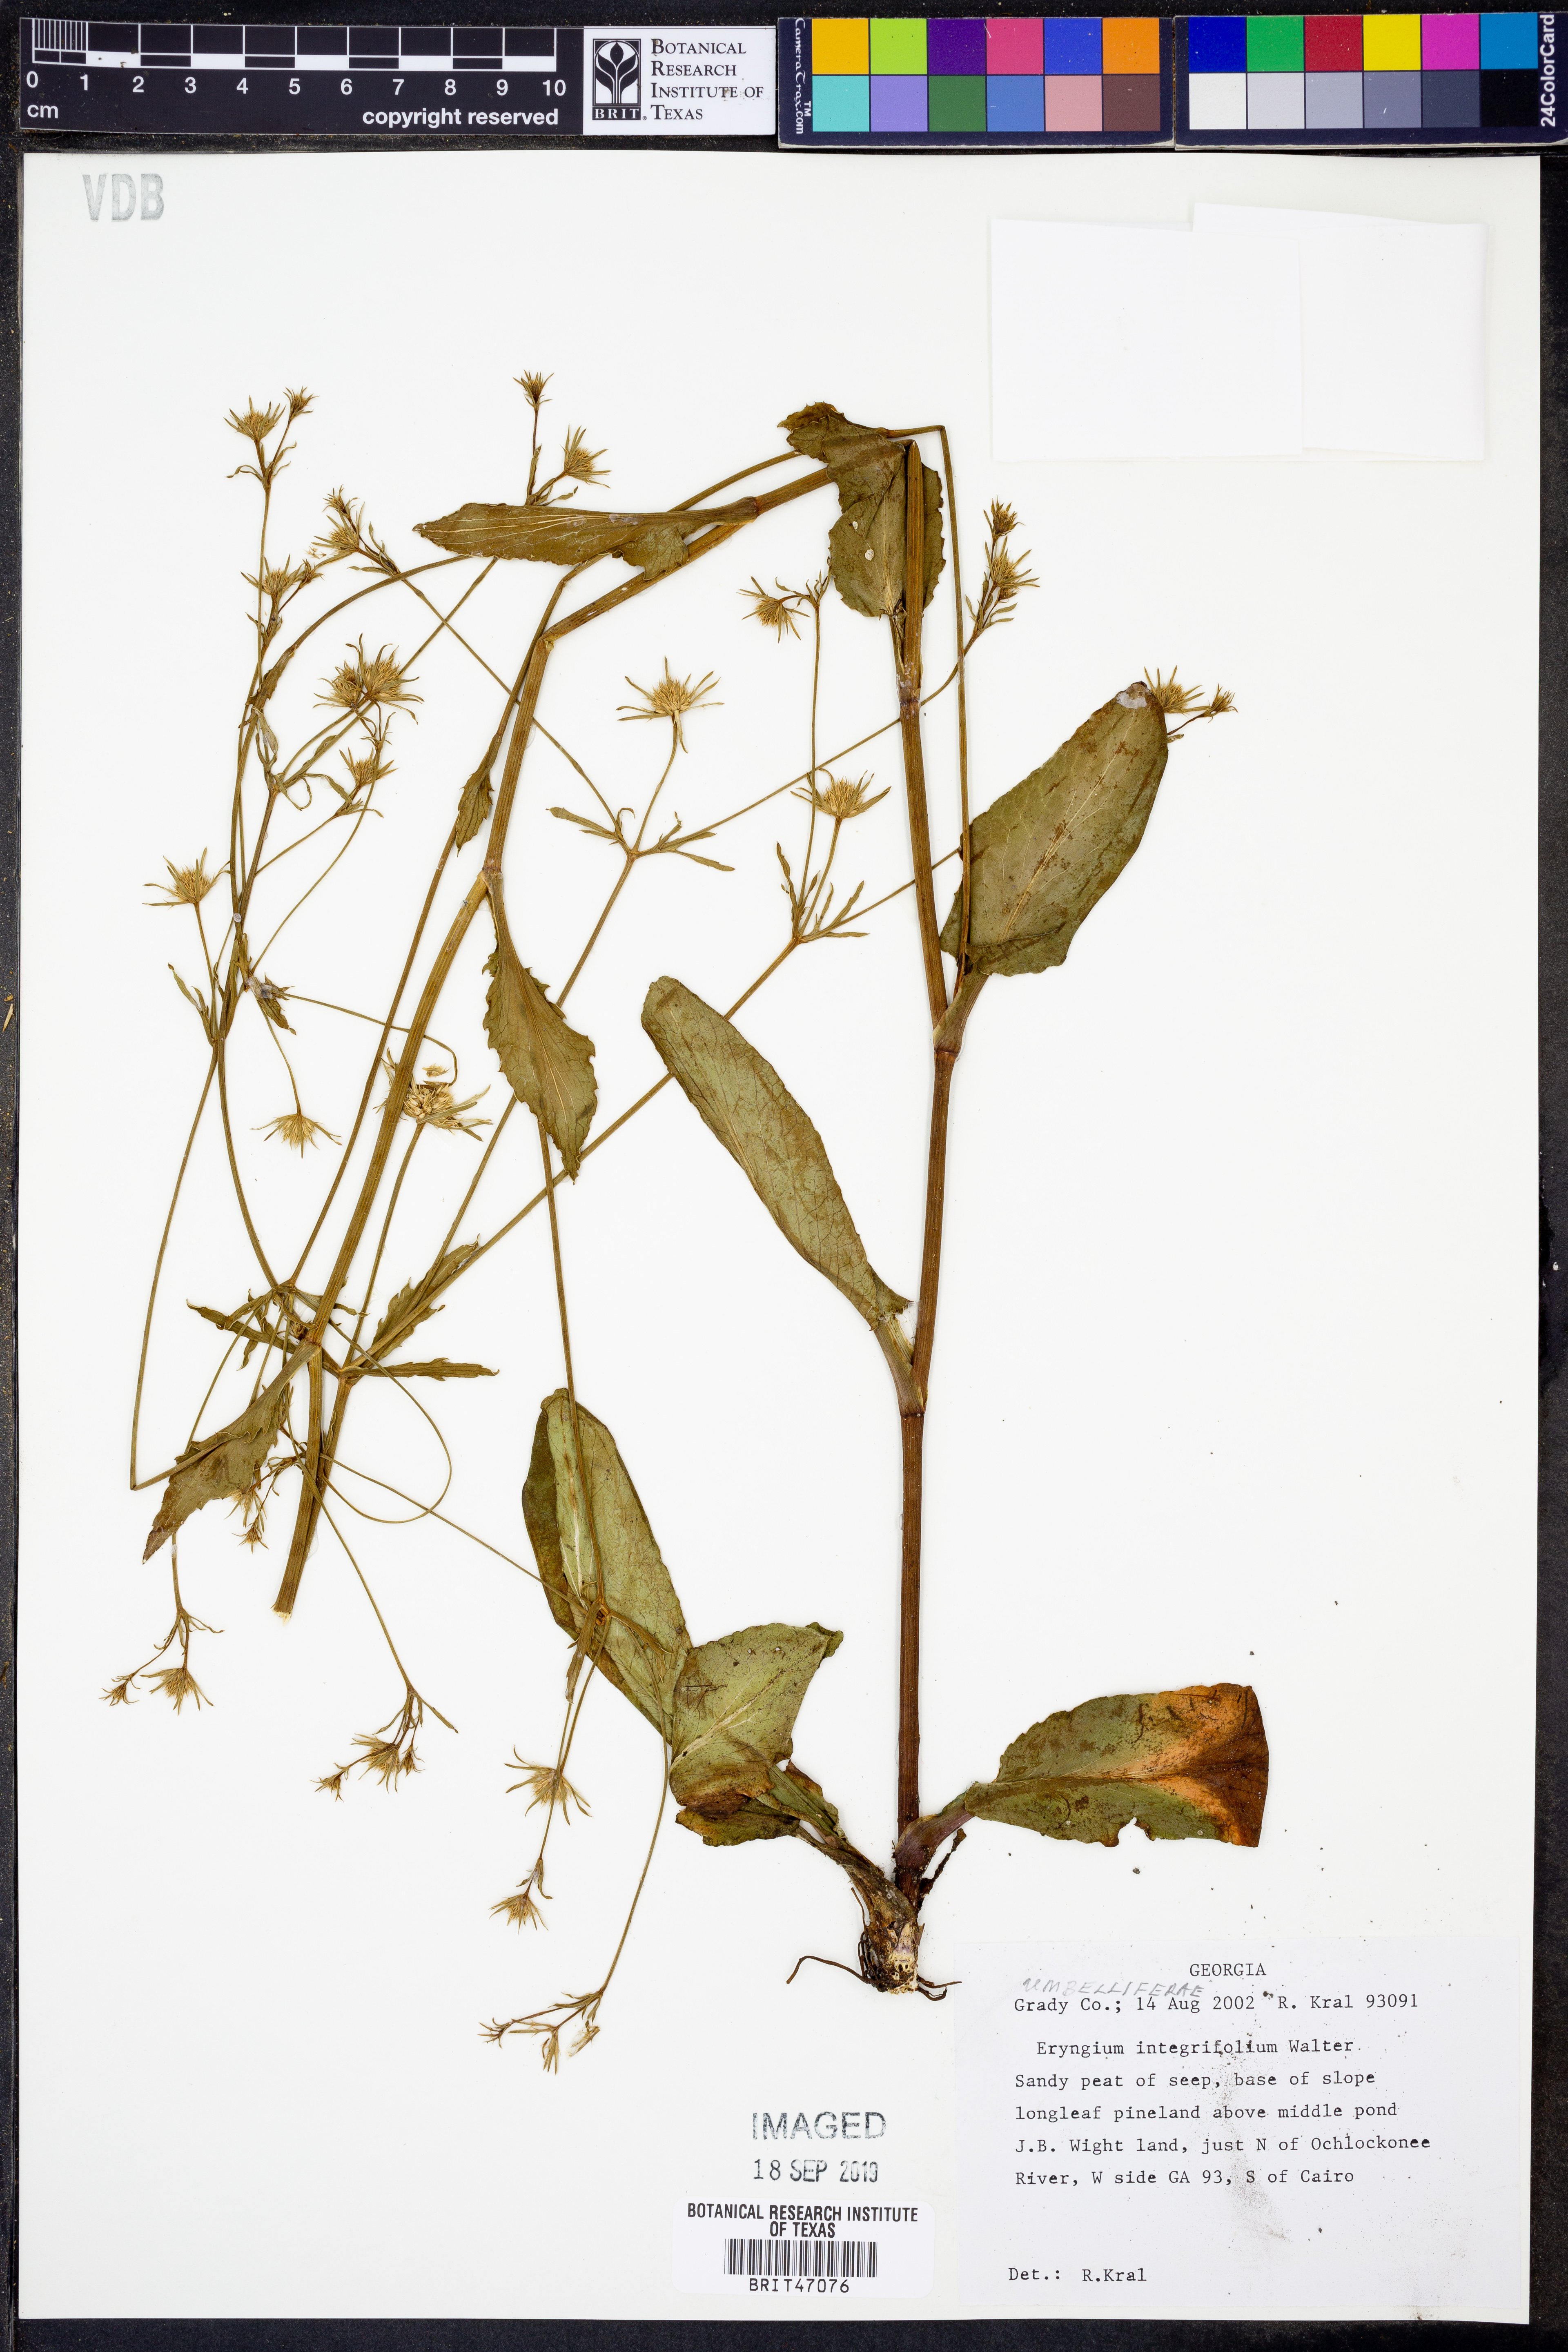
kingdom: Plantae
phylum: Tracheophyta
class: Magnoliopsida
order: Apiales
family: Apiaceae
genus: Eryngium
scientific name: Eryngium integrifolium
